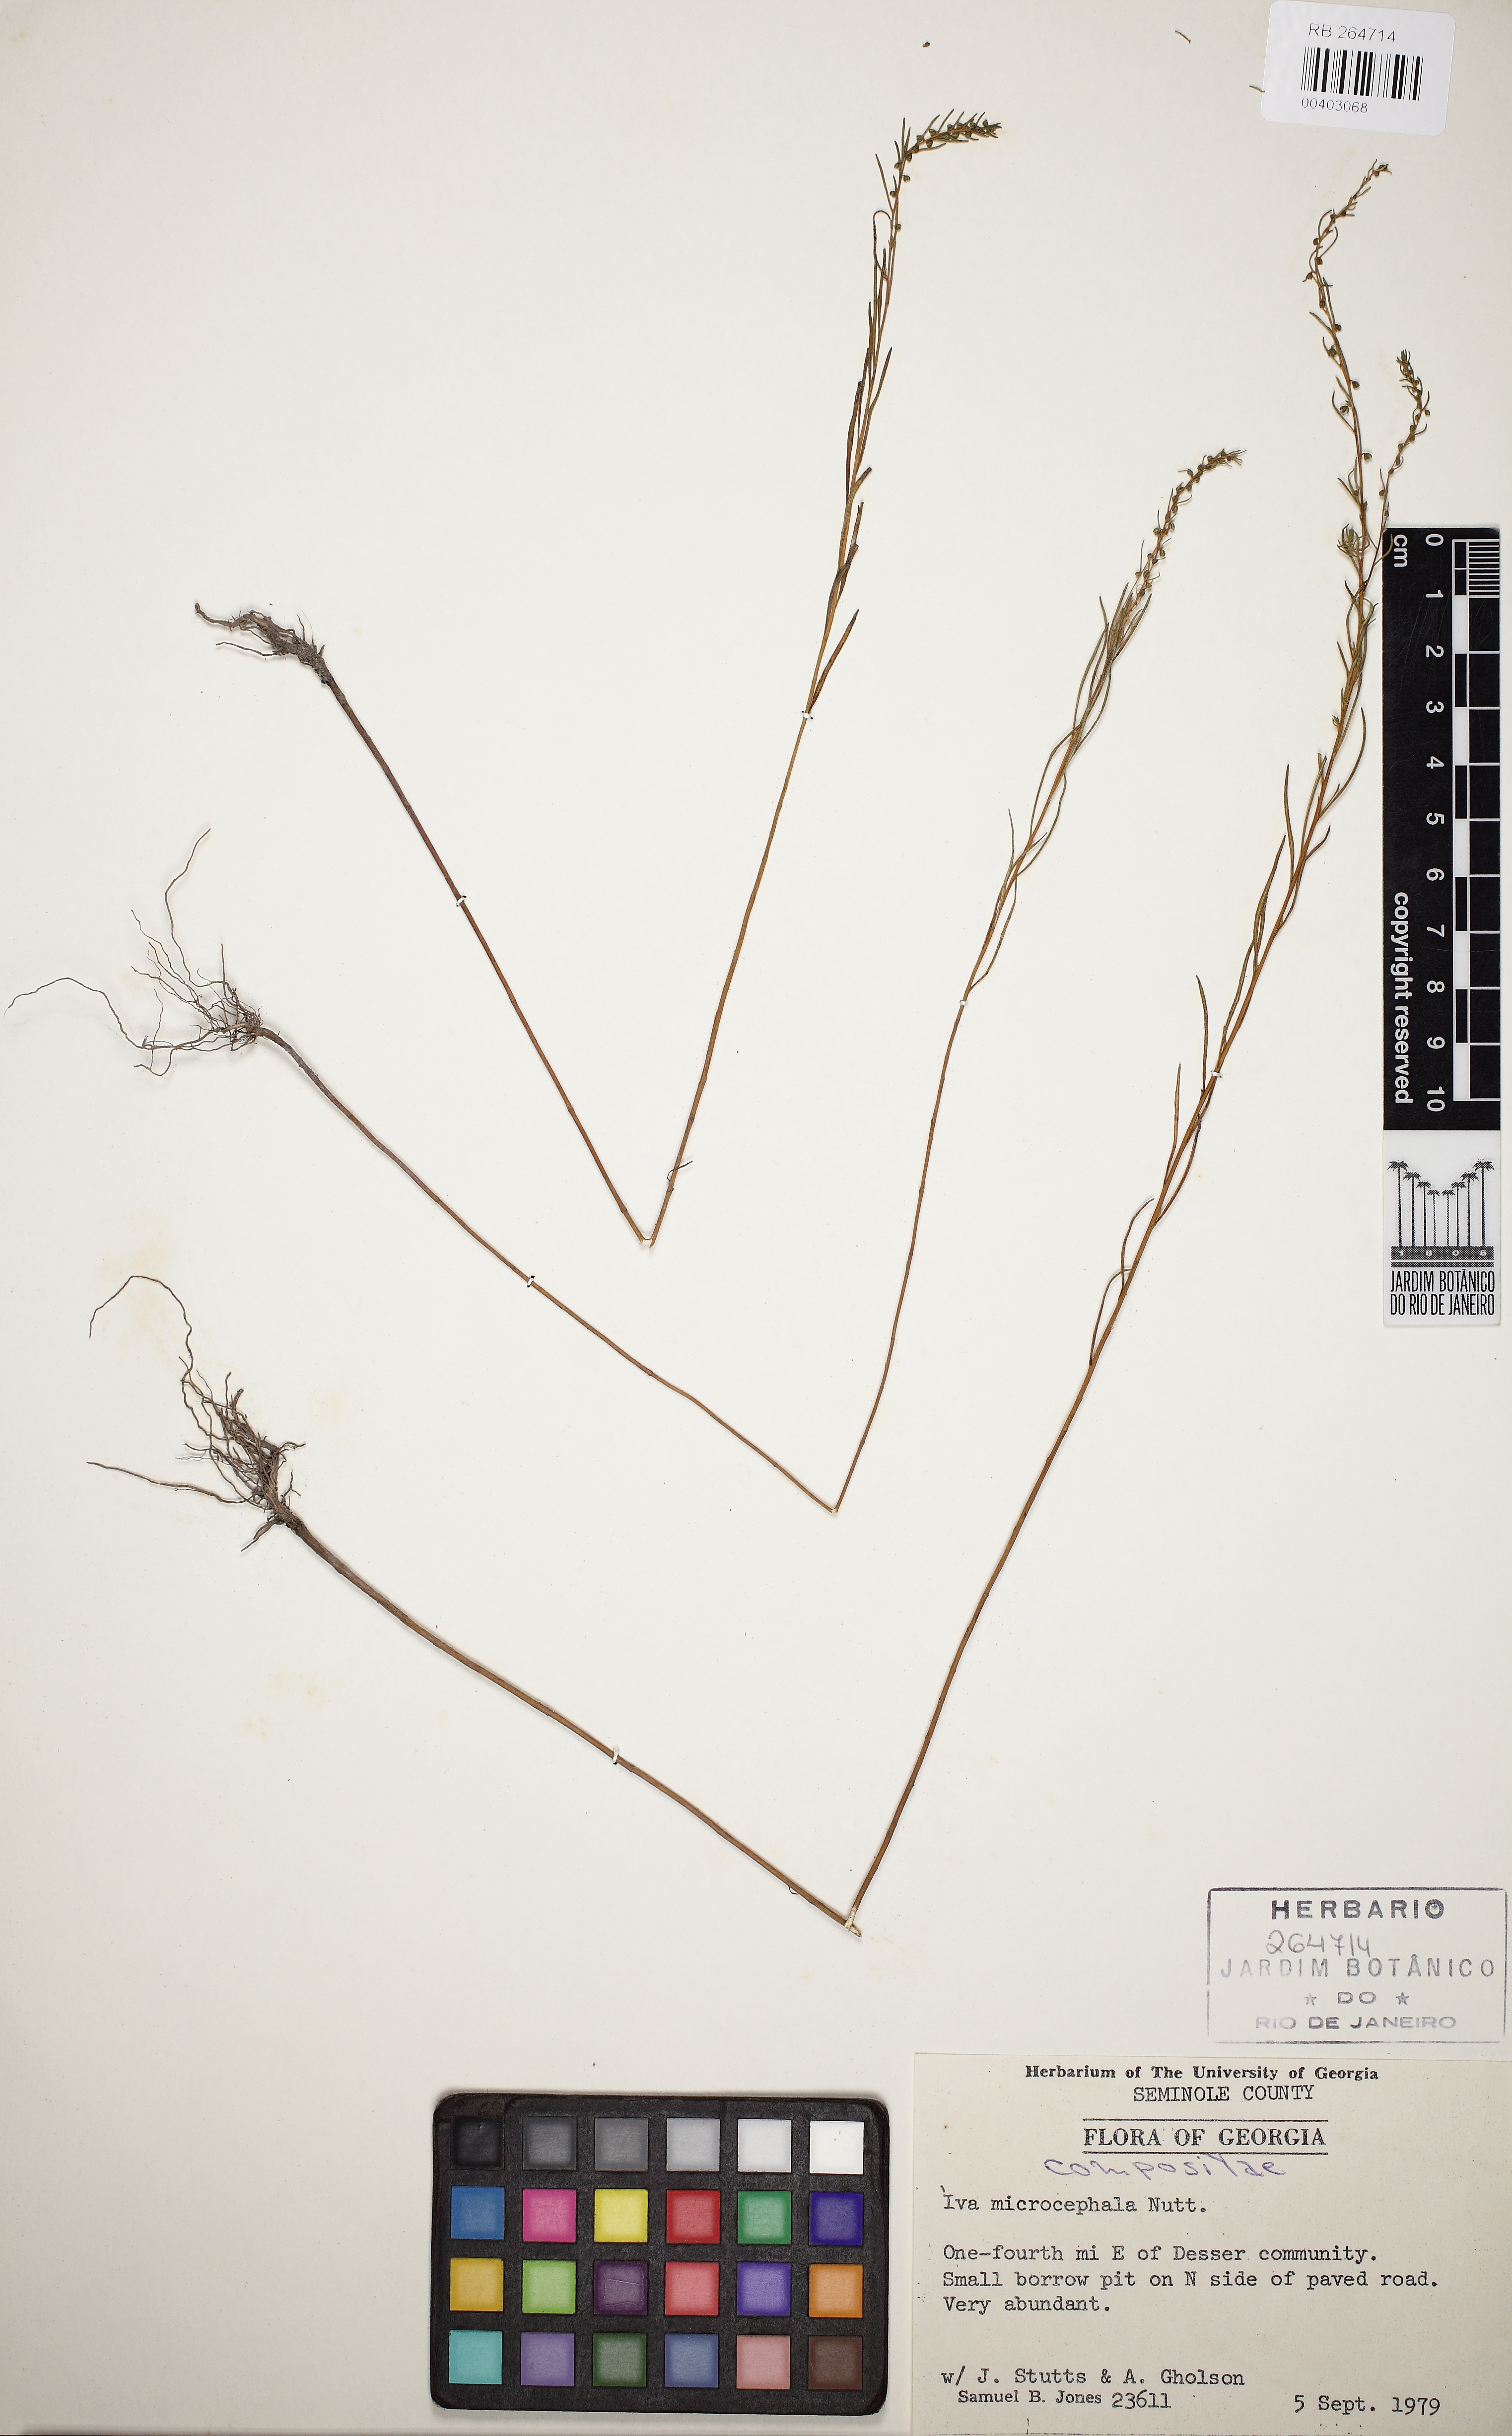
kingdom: Plantae
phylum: Tracheophyta
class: Magnoliopsida
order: Asterales
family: Asteraceae
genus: Iva
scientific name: Iva microcephala
